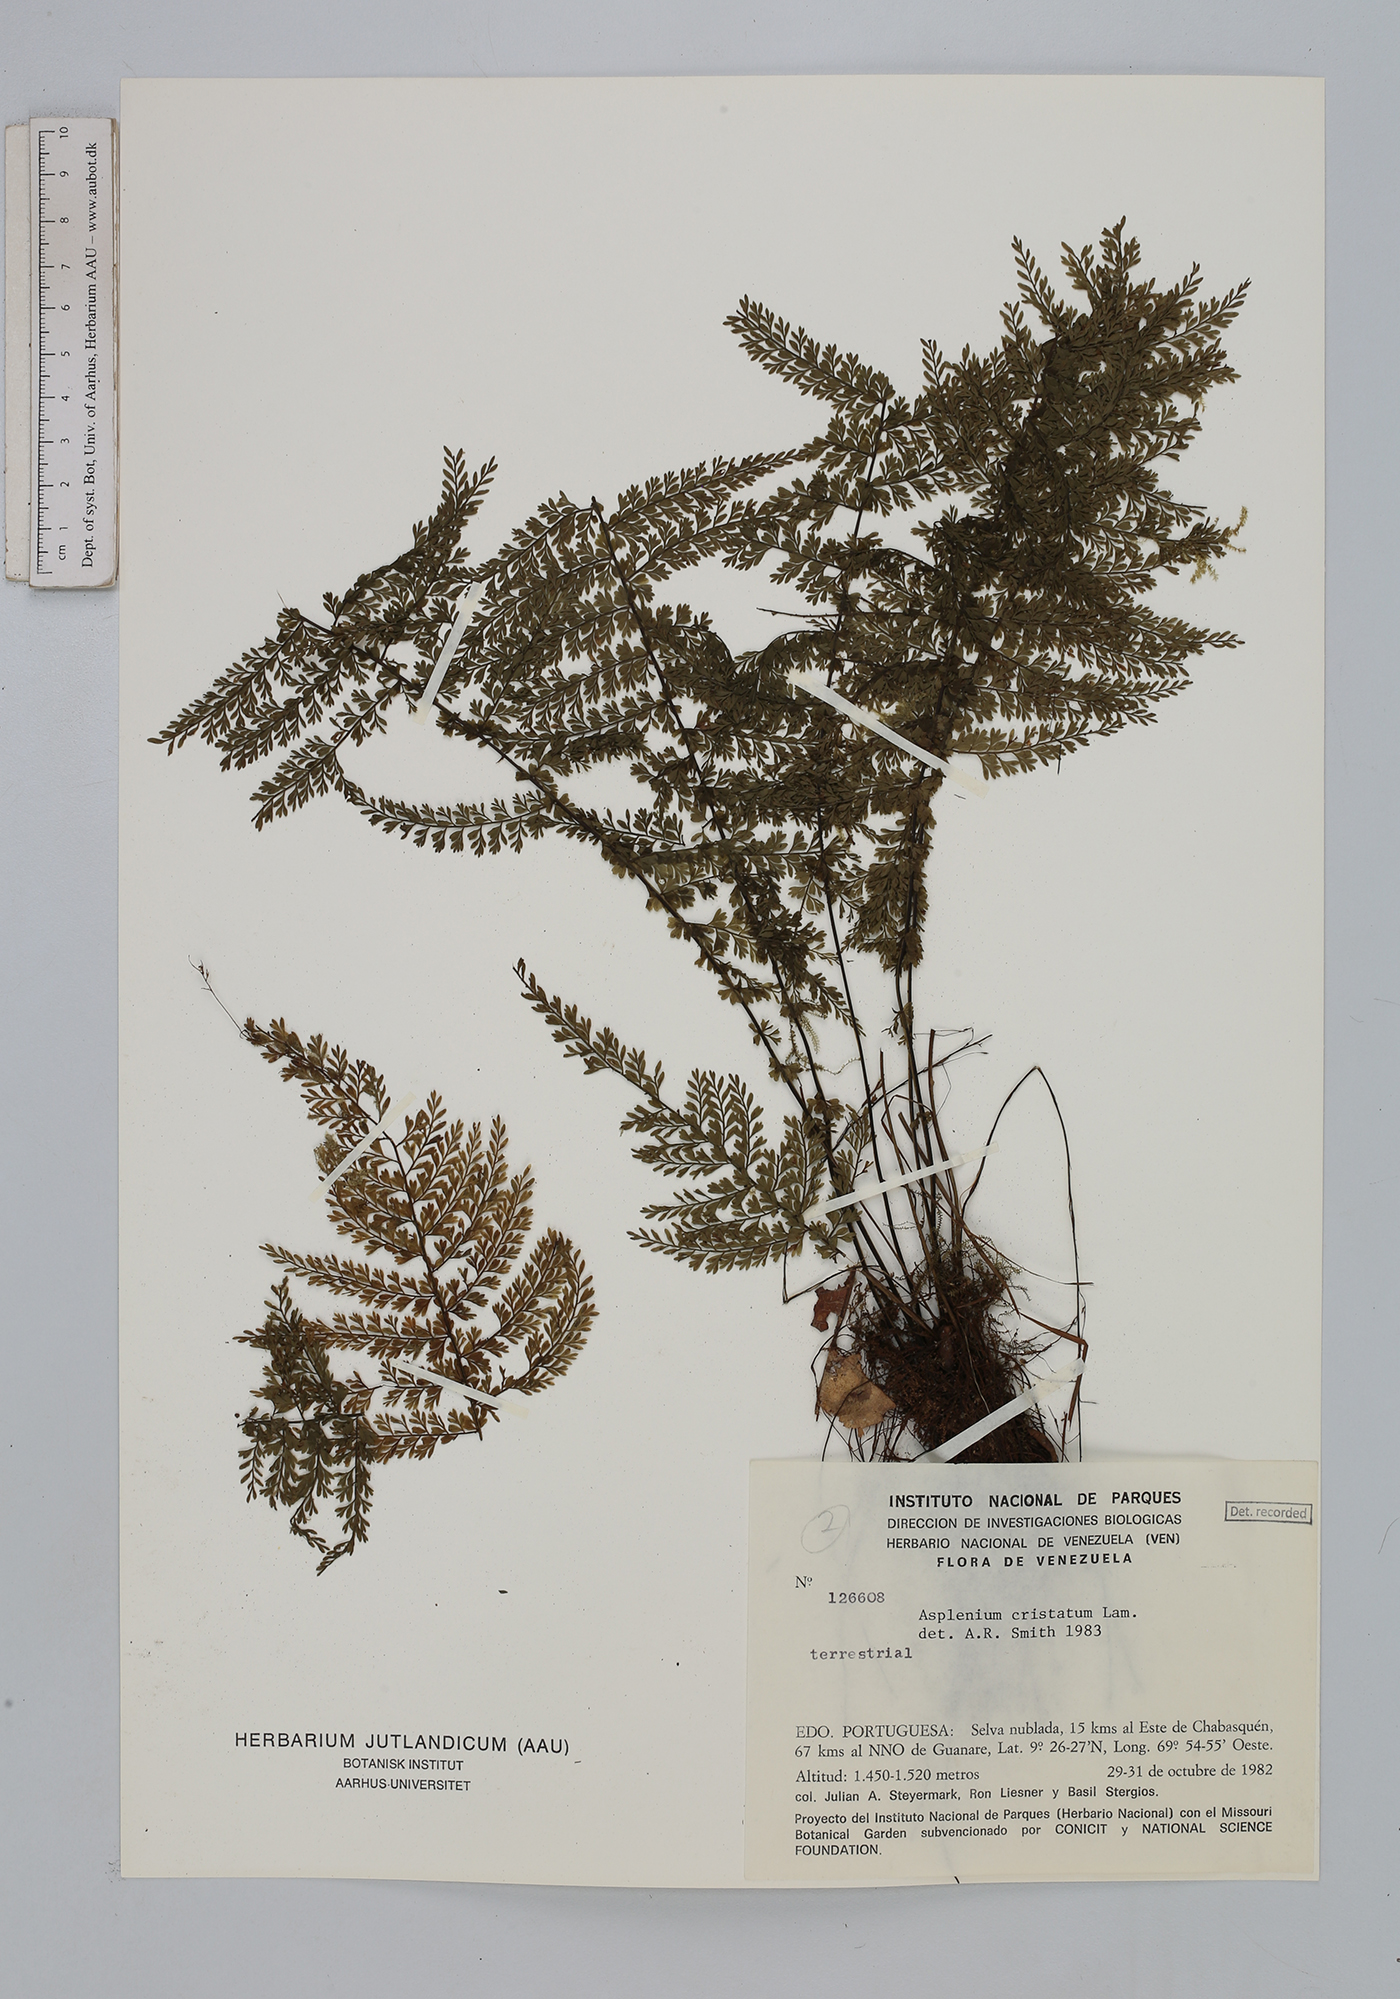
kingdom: Plantae
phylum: Tracheophyta
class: Polypodiopsida
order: Polypodiales
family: Aspleniaceae
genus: Asplenium
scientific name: Asplenium cristatum
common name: Parsley spleenwort
